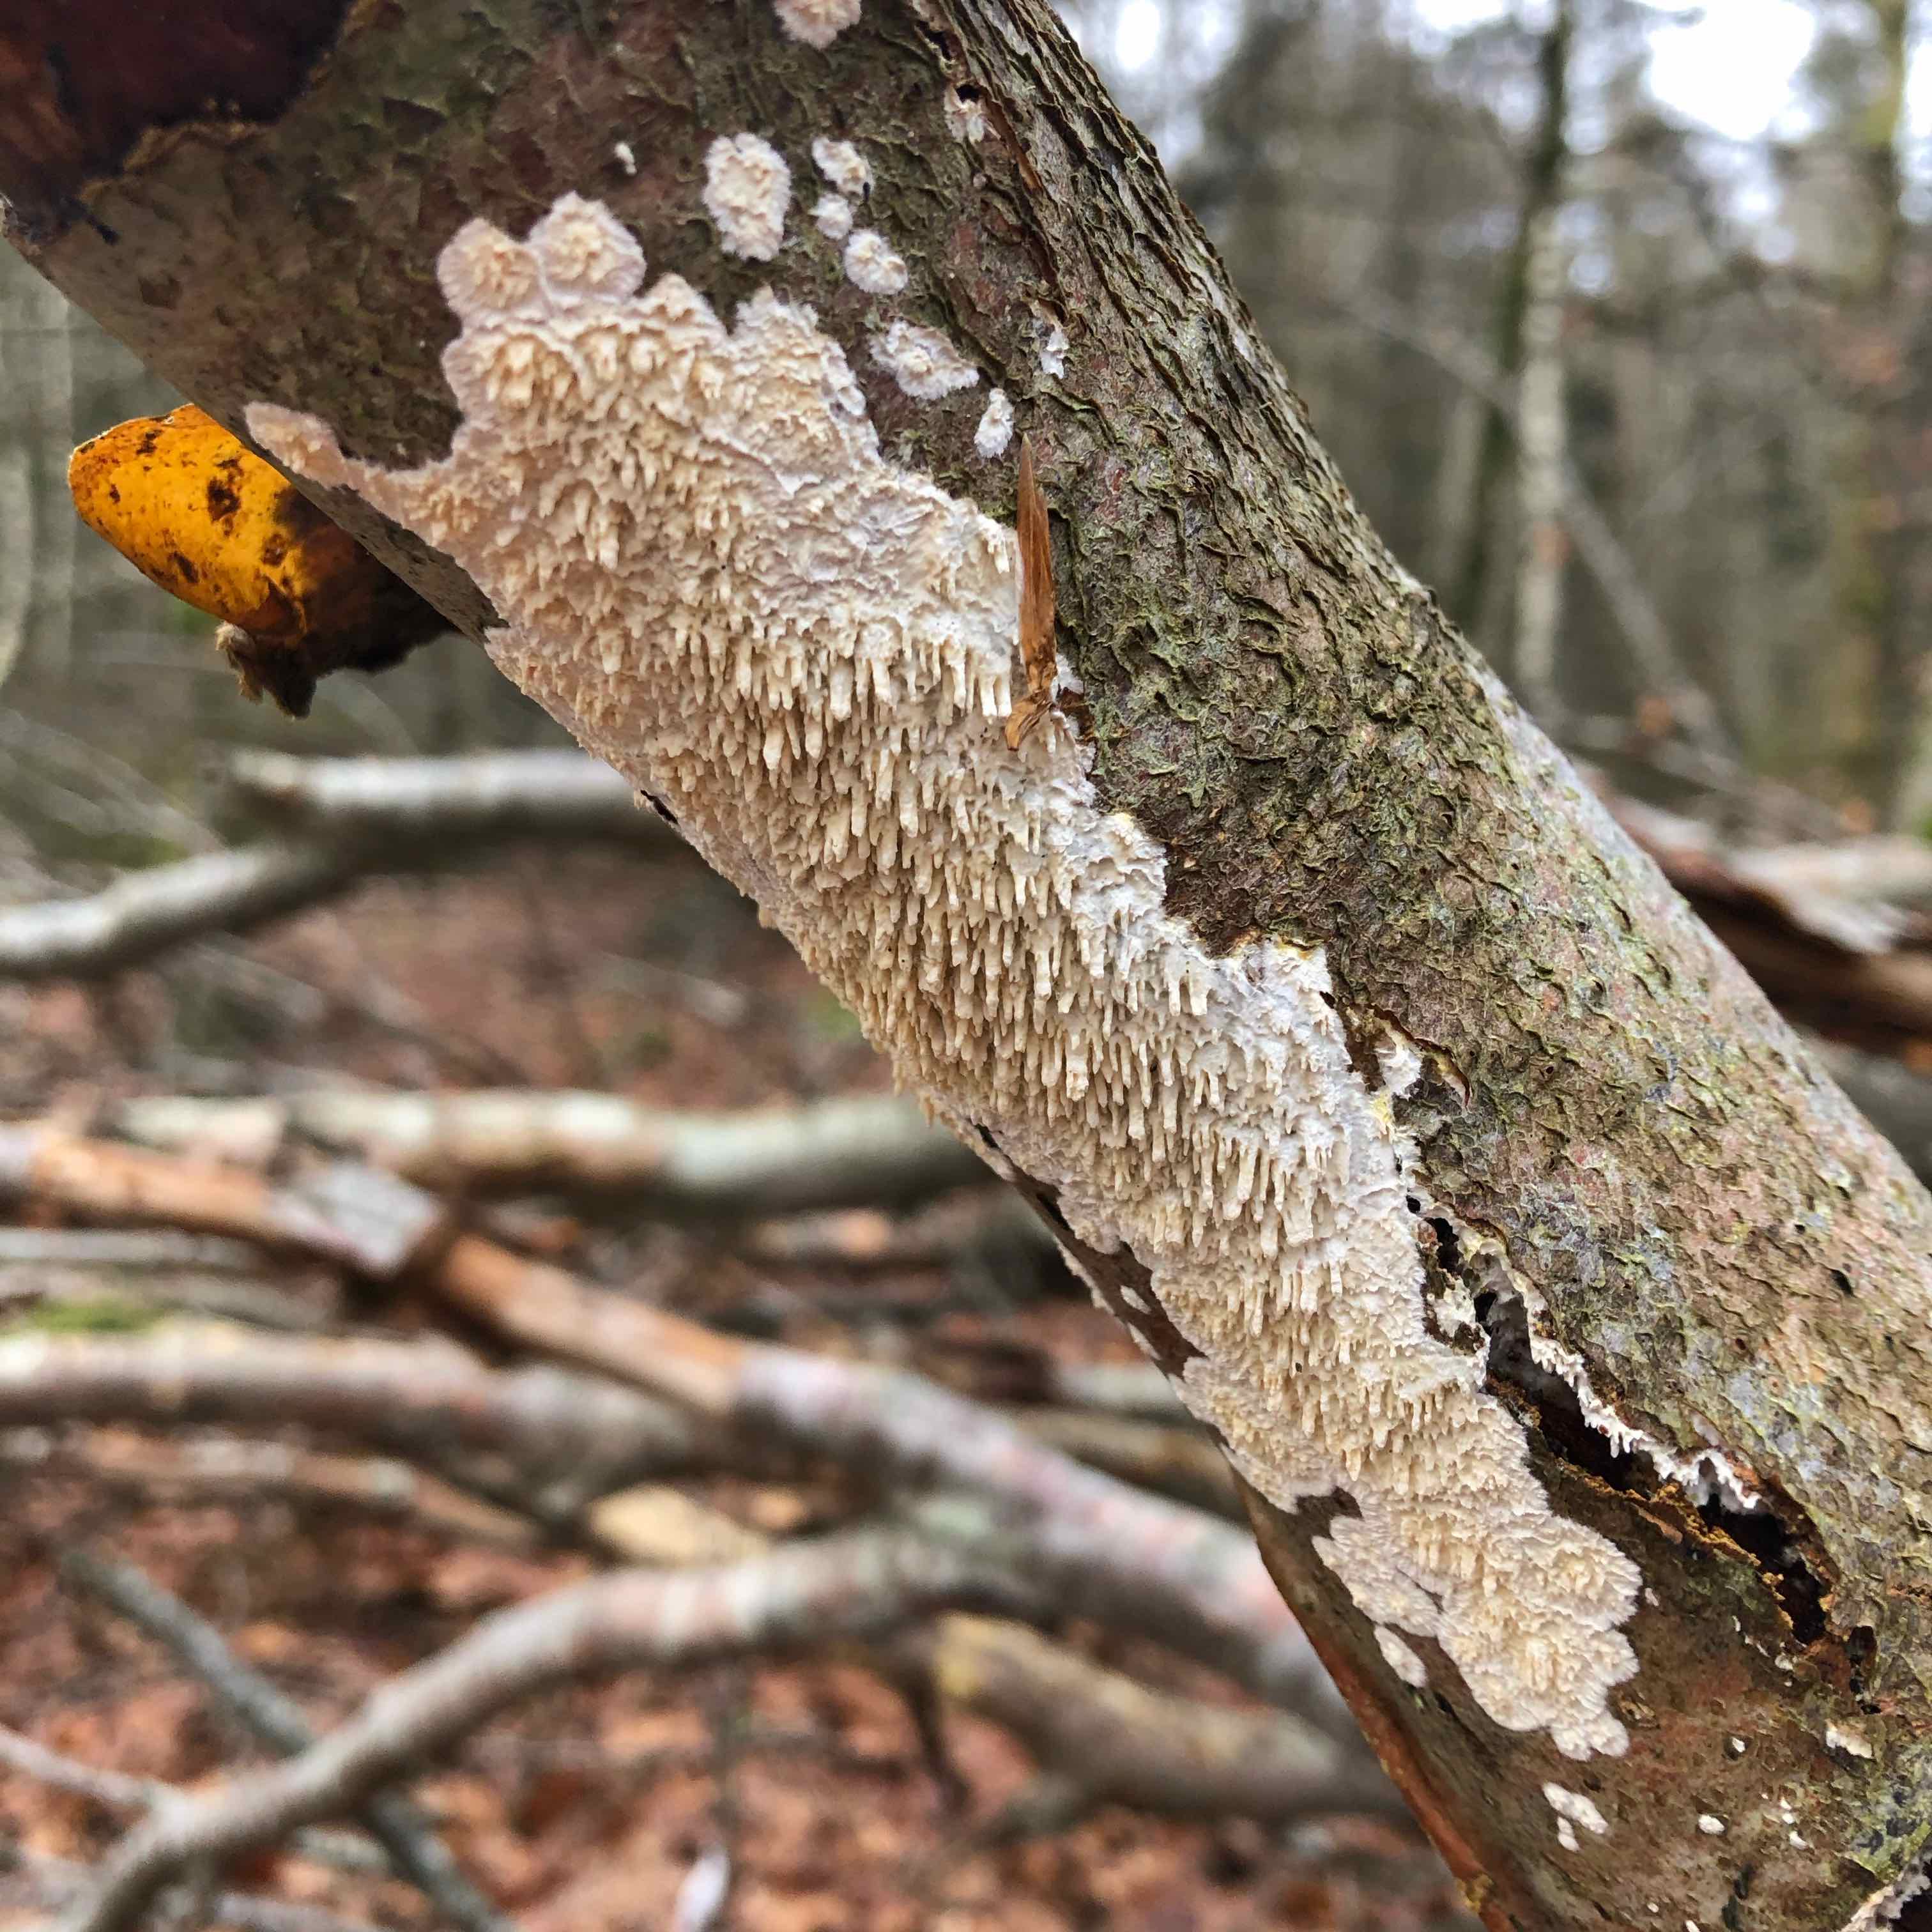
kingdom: Fungi
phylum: Basidiomycota
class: Agaricomycetes
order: Hymenochaetales
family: Schizoporaceae
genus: Xylodon
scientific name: Xylodon radula
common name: grovtandet kalkskind
